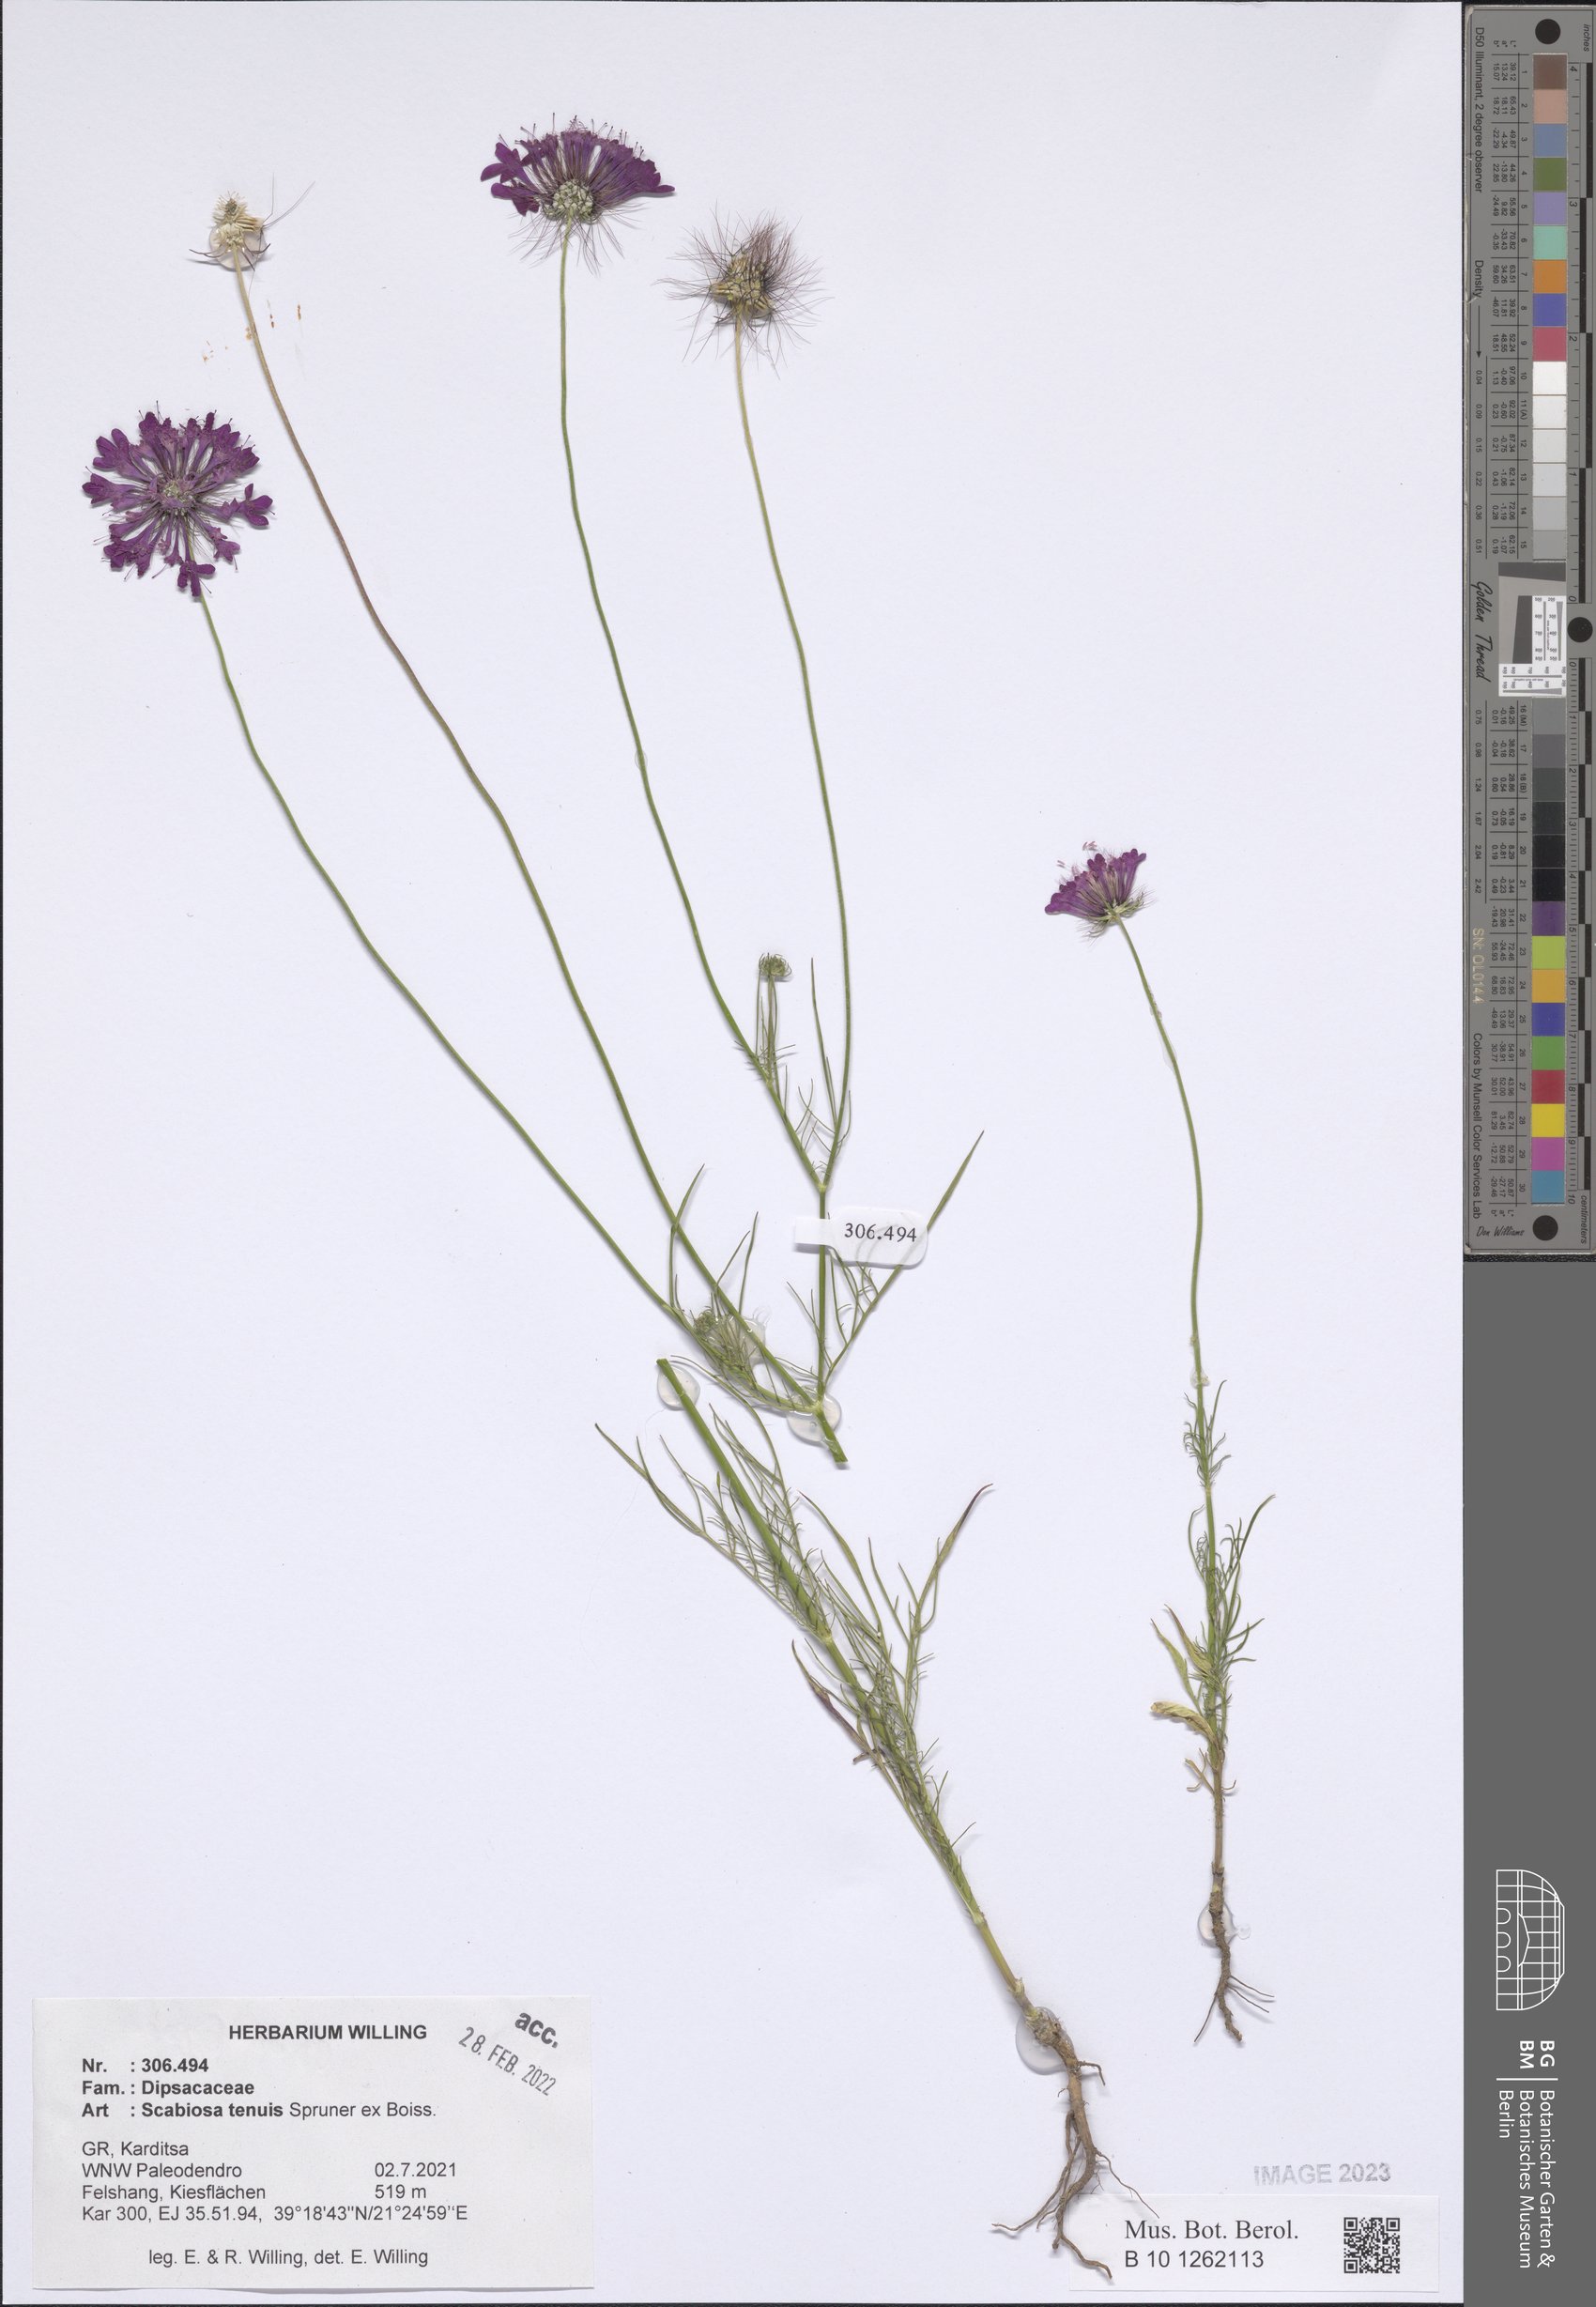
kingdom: Plantae
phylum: Tracheophyta
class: Magnoliopsida
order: Dipsacales
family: Caprifoliaceae
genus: Scabiosa
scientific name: Scabiosa tenuis
